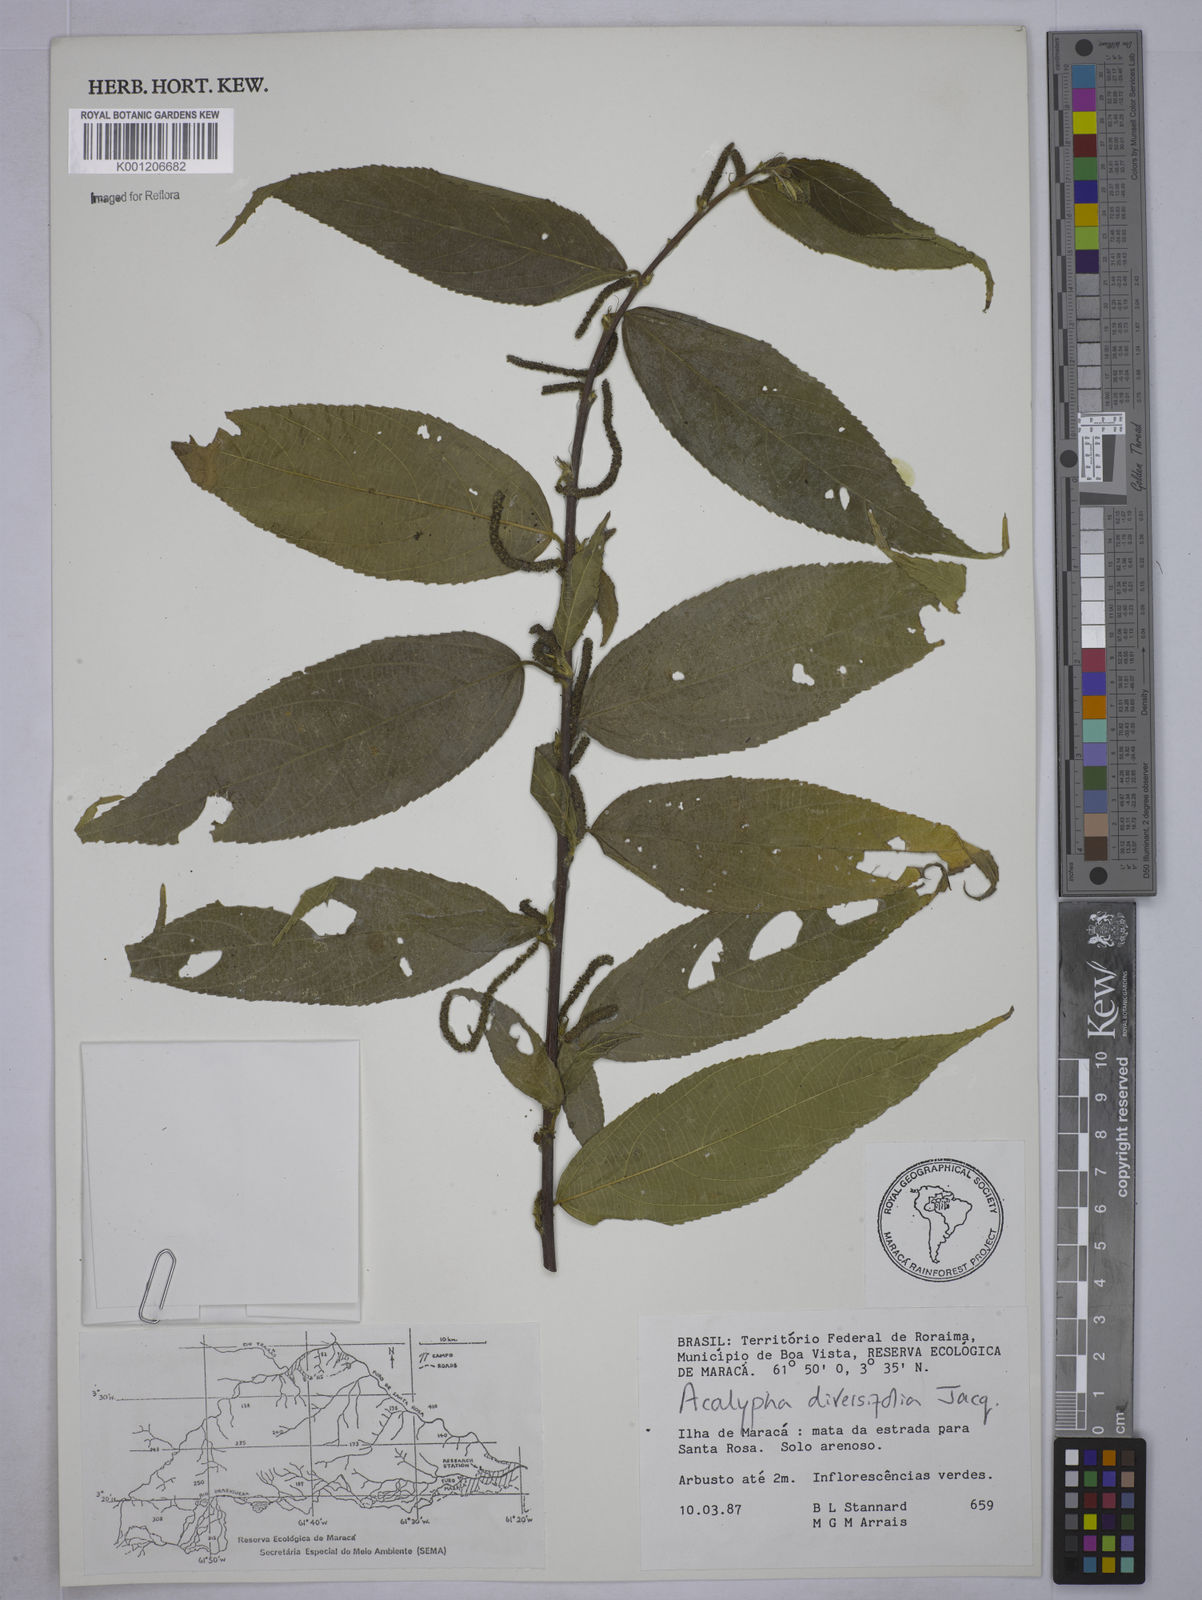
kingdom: Plantae
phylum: Tracheophyta
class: Magnoliopsida
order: Malpighiales
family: Euphorbiaceae
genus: Acalypha
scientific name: Acalypha diversifolia
